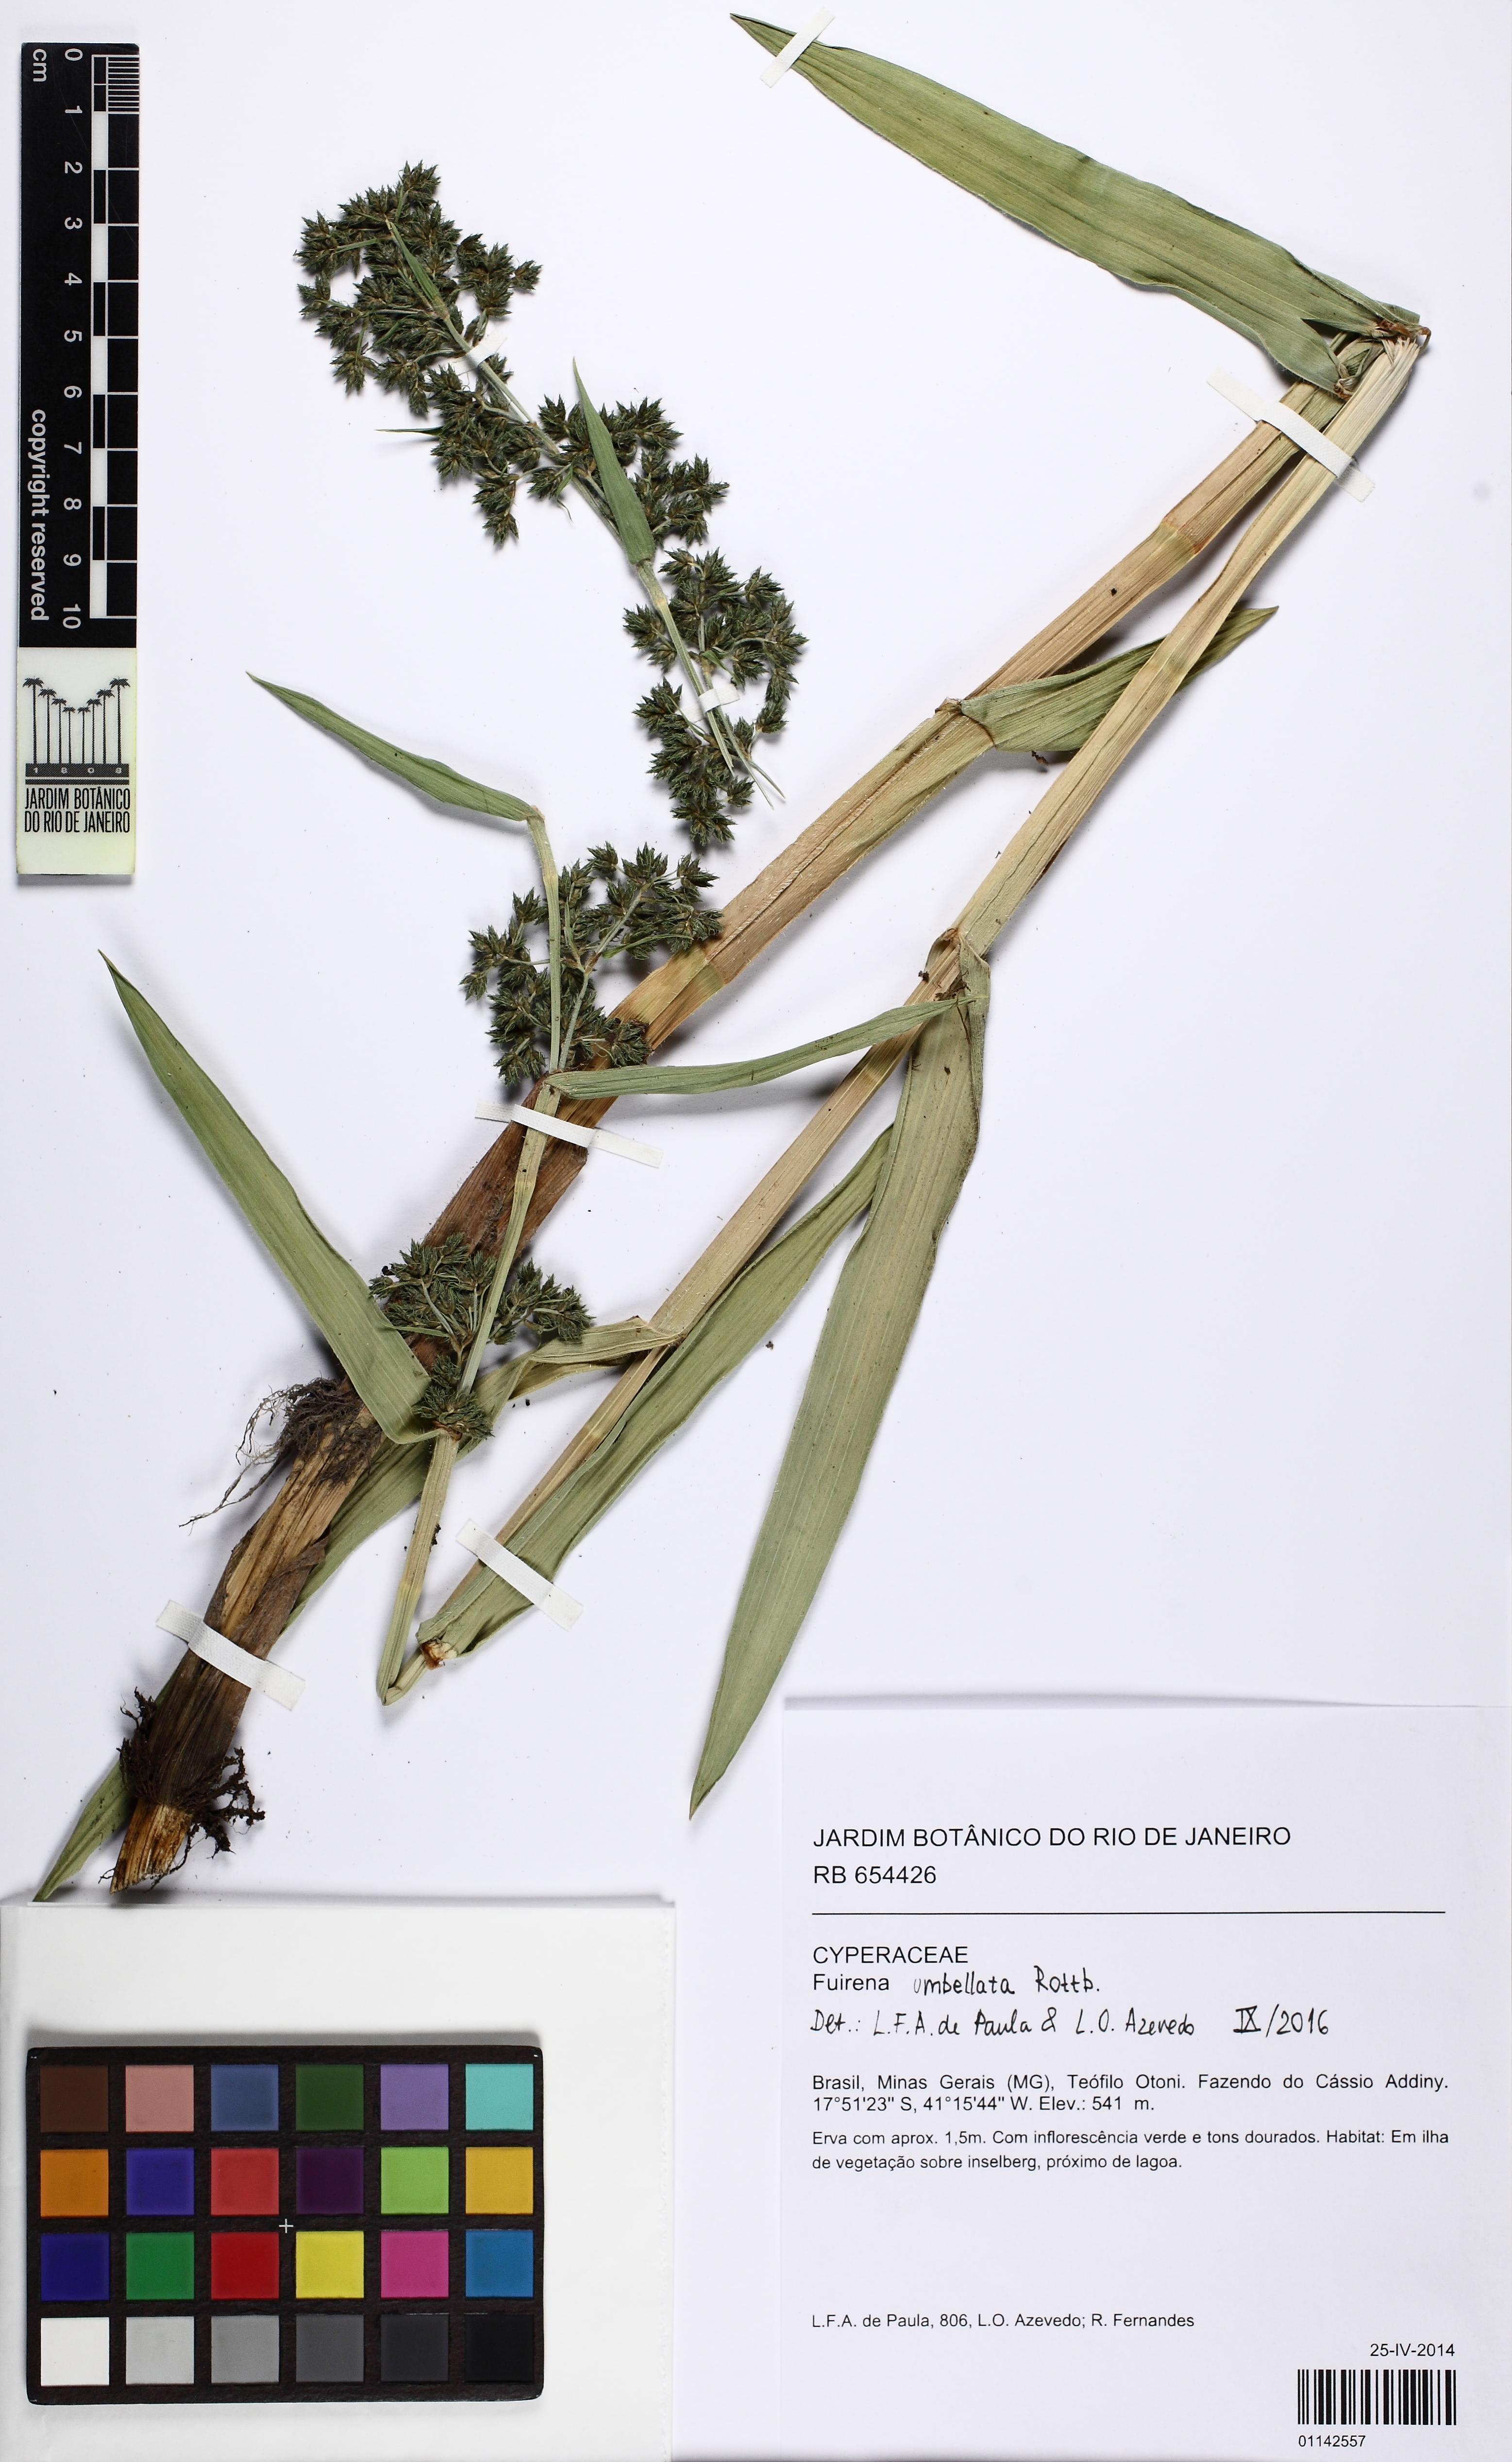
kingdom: Plantae
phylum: Tracheophyta
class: Liliopsida
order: Poales
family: Cyperaceae
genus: Fuirena
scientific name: Fuirena umbellata
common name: Yefen
